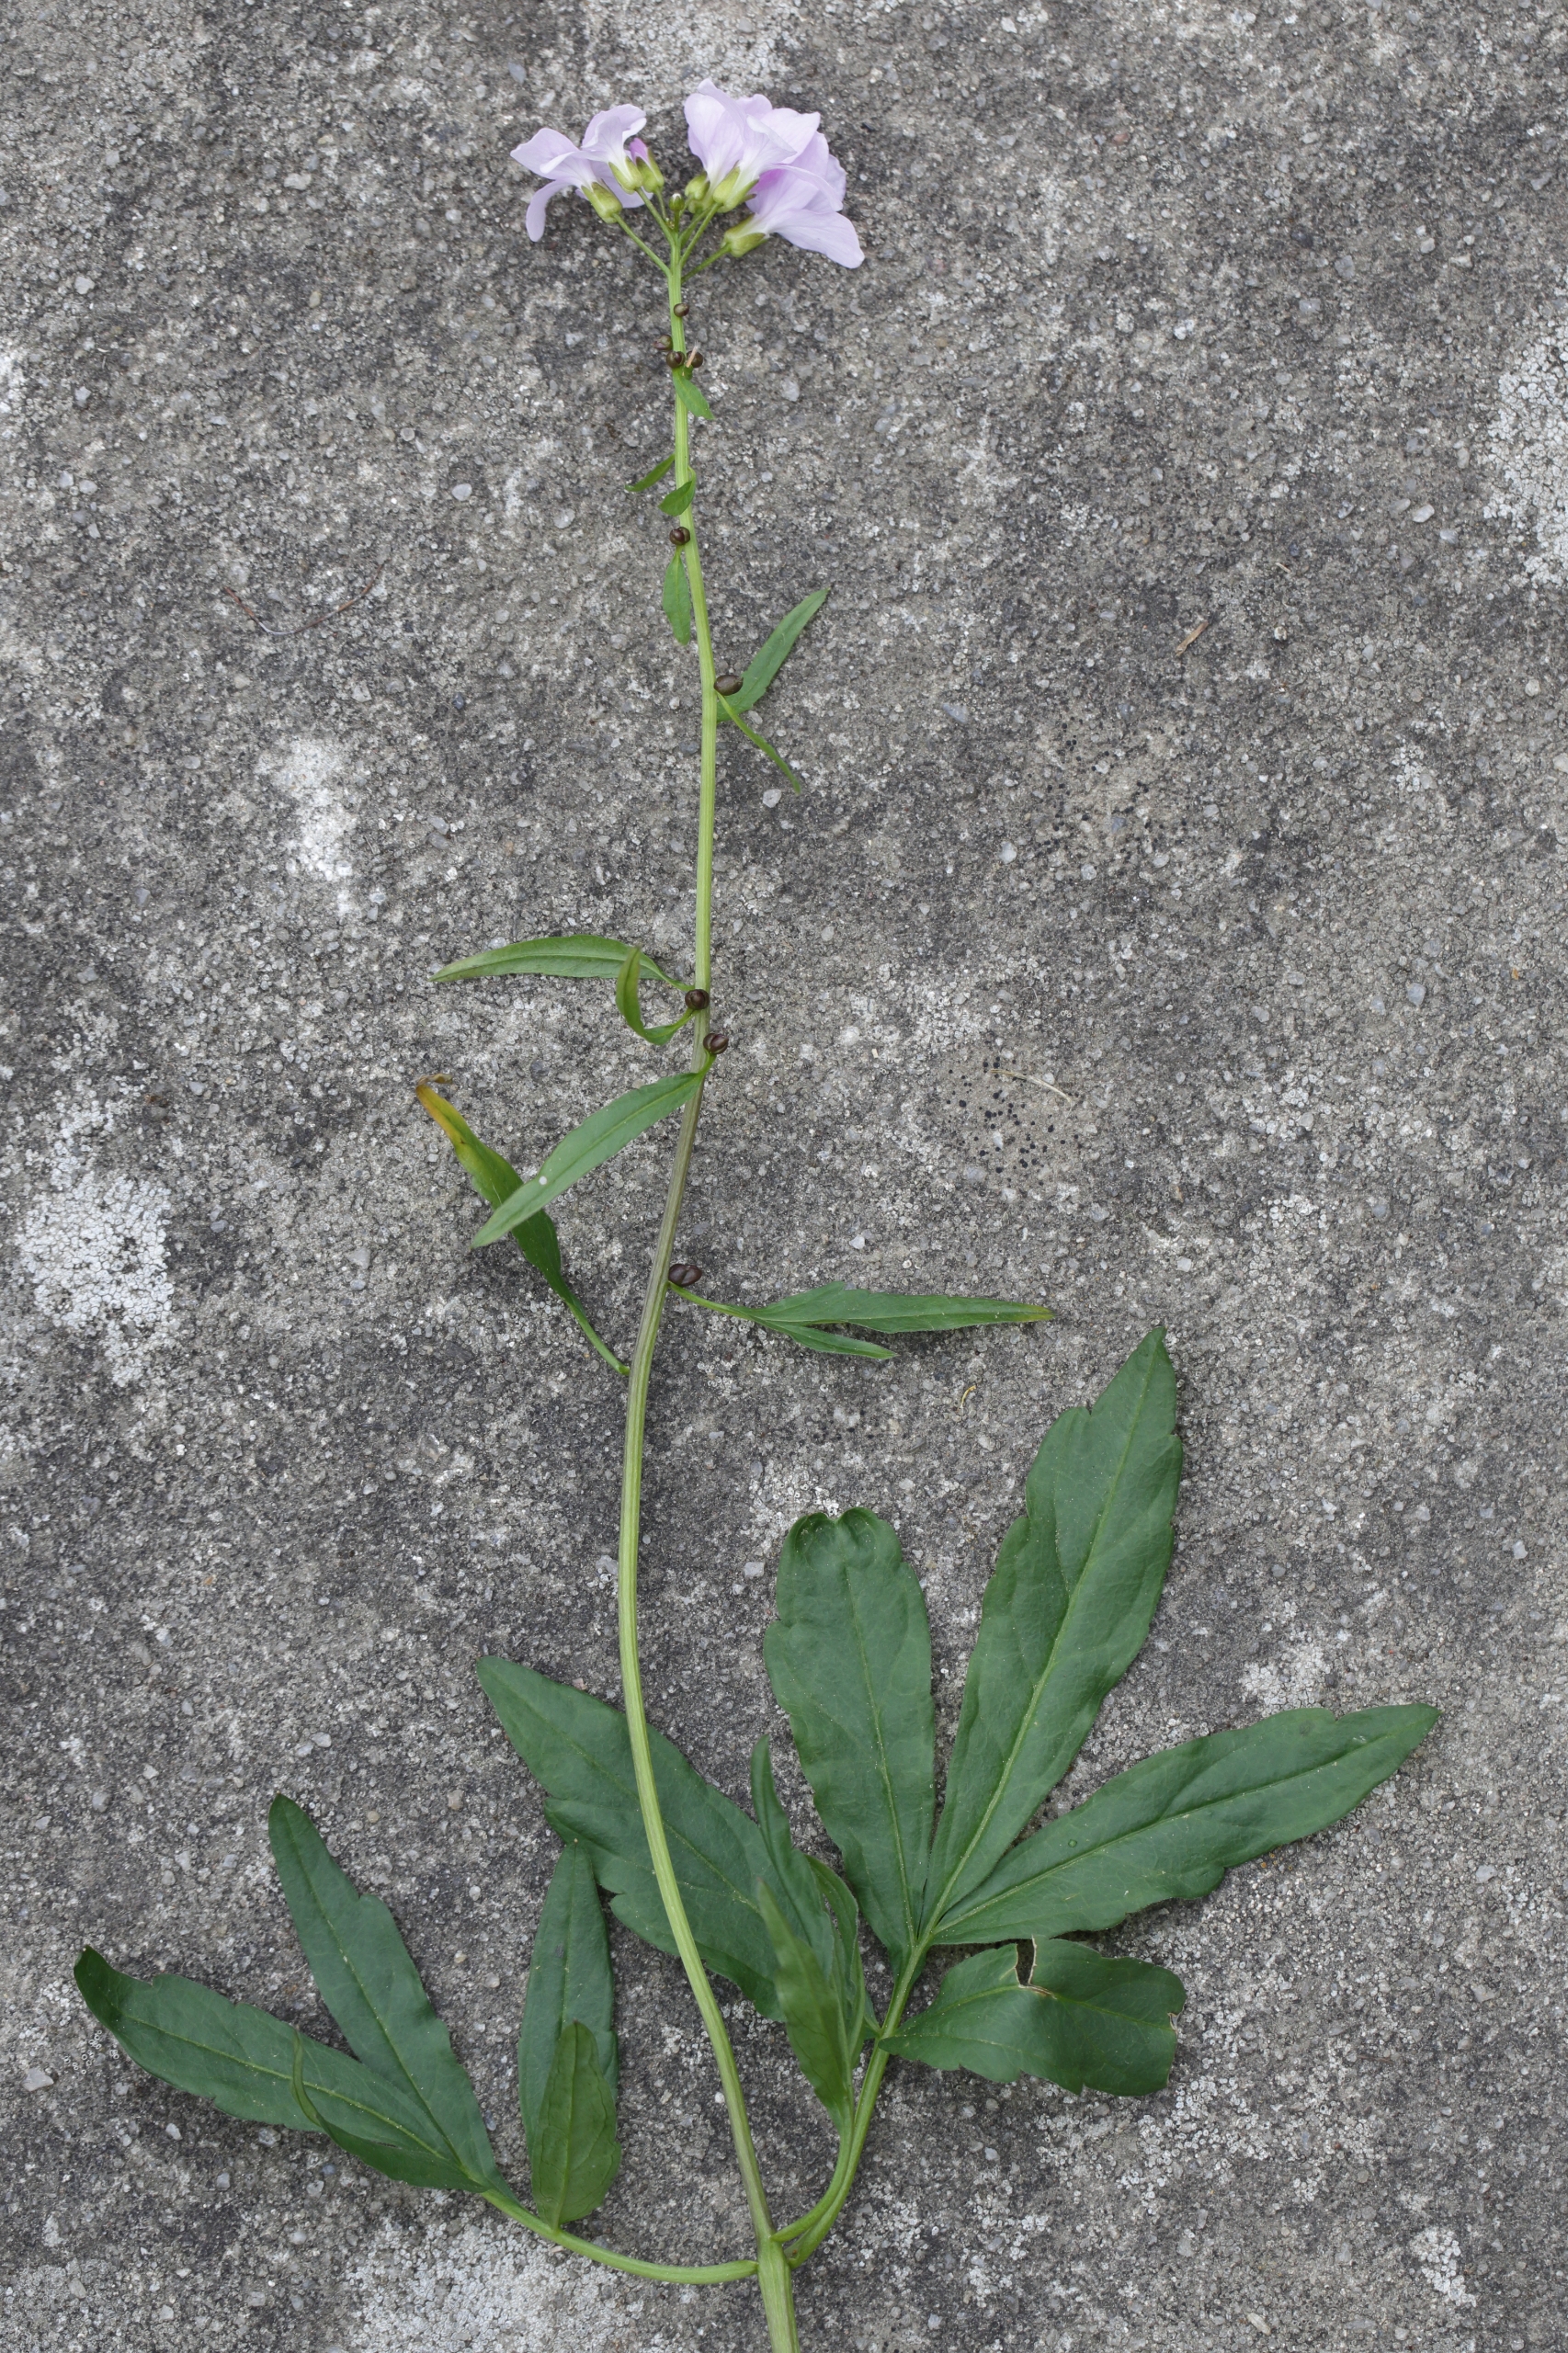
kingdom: Plantae
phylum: Tracheophyta
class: Magnoliopsida
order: Brassicales
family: Brassicaceae
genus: Cardamine
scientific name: Cardamine bulbifera
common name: Tandrod
